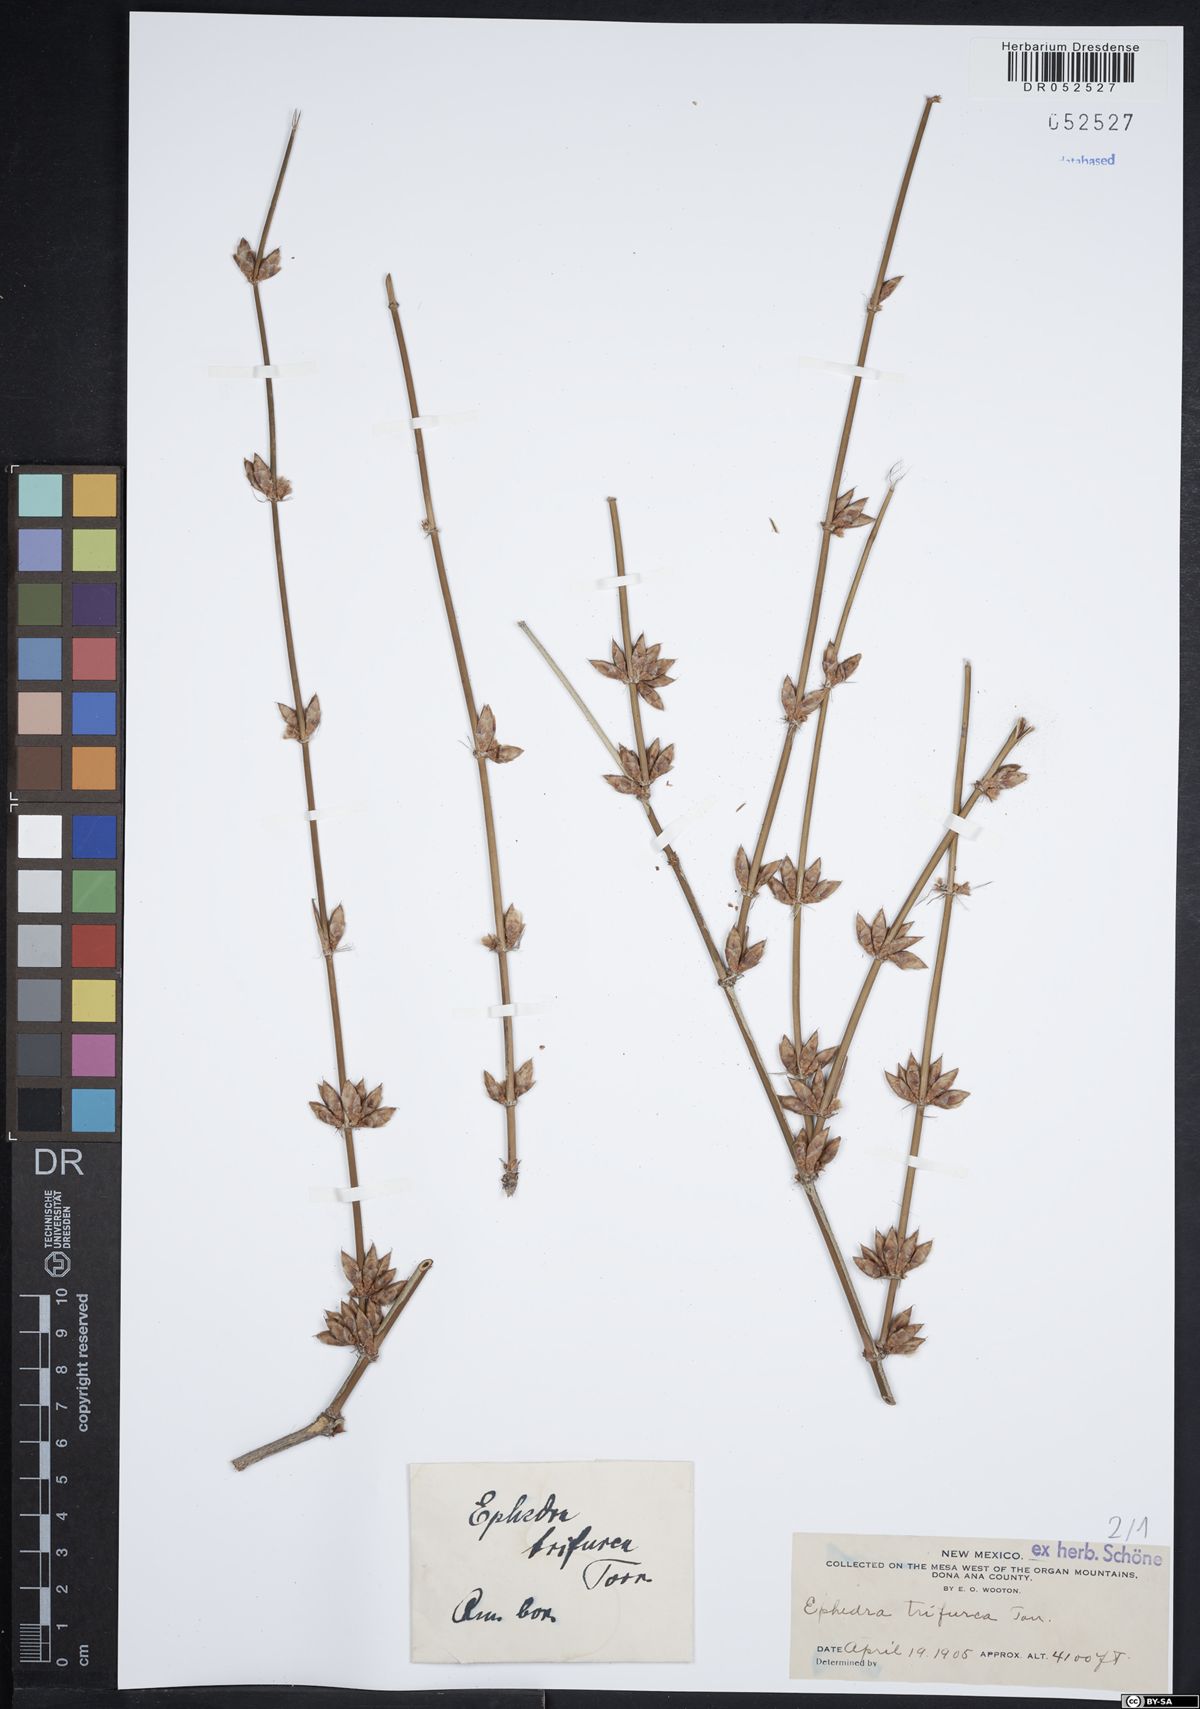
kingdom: Plantae
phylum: Tracheophyta
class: Gnetopsida
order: Ephedrales
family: Ephedraceae
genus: Ephedra
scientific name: Ephedra trifurca
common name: Mexican-tea
